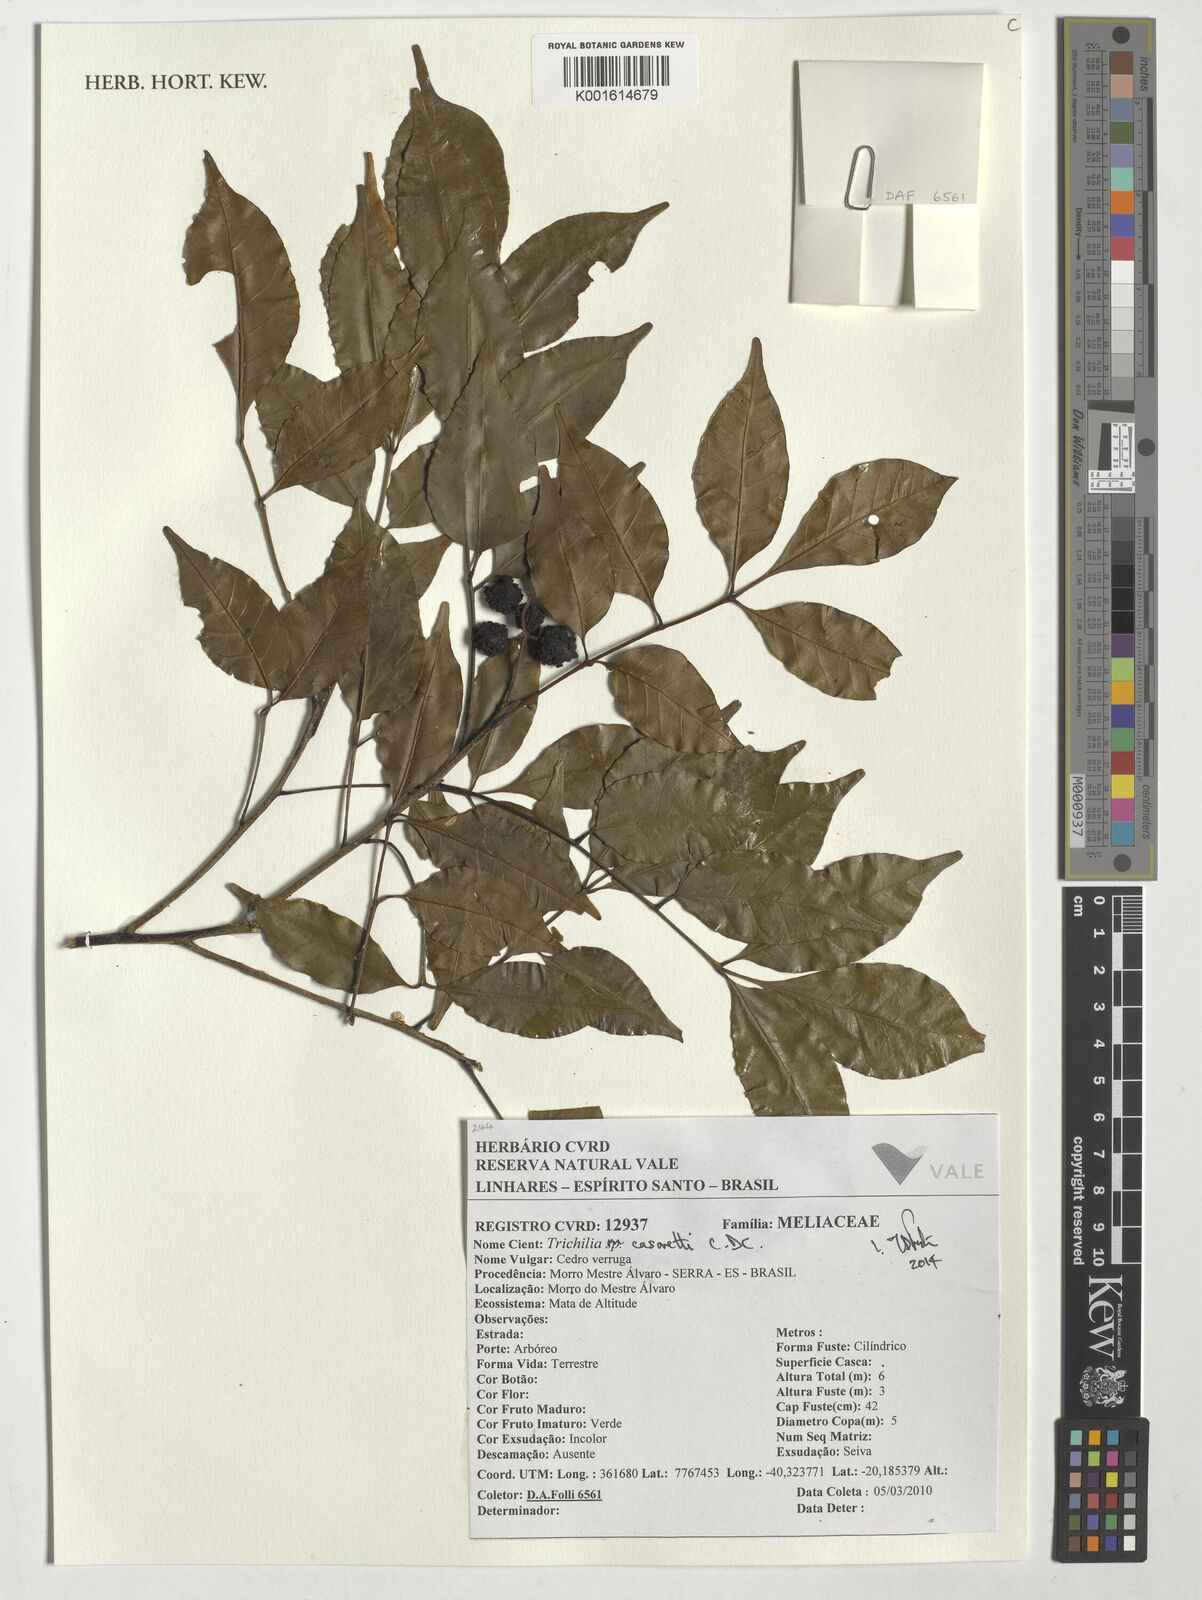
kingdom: Plantae
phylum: Tracheophyta
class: Magnoliopsida
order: Sapindales
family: Meliaceae
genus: Trichilia
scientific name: Trichilia casarettoi
